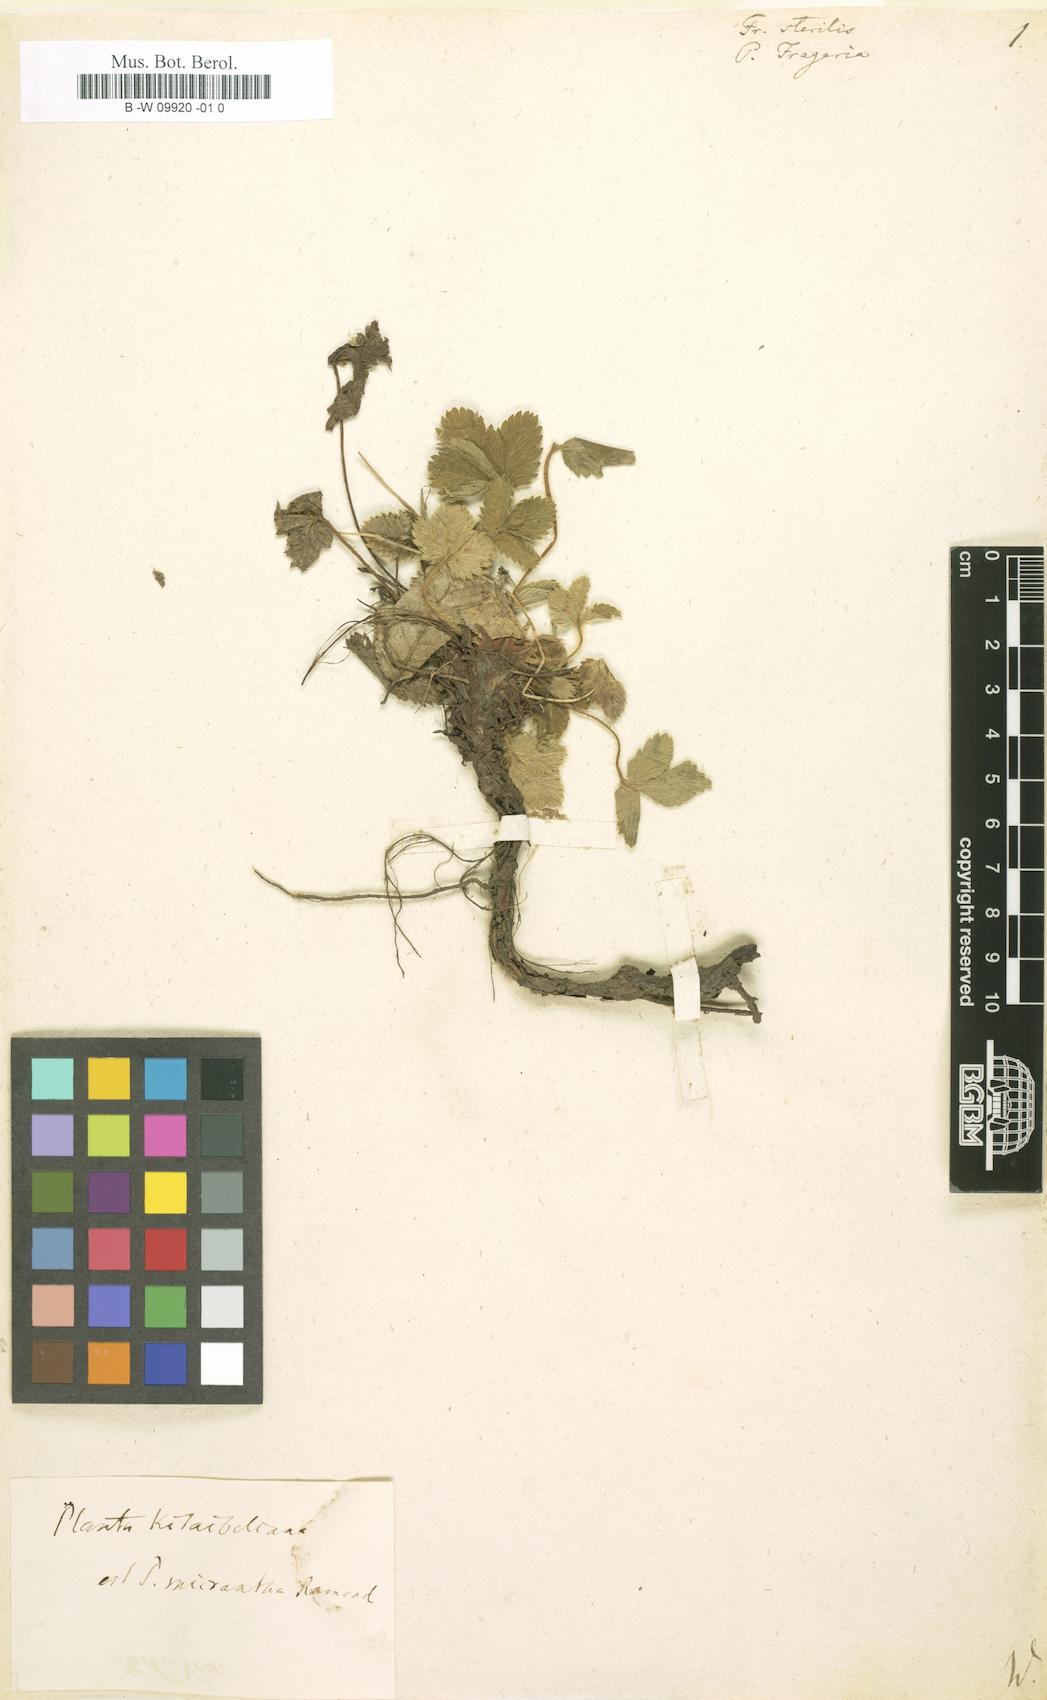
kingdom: Plantae
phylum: Tracheophyta
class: Magnoliopsida
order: Rosales
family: Rosaceae
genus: Potentilla
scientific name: Potentilla sterilis
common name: Barren strawberry
